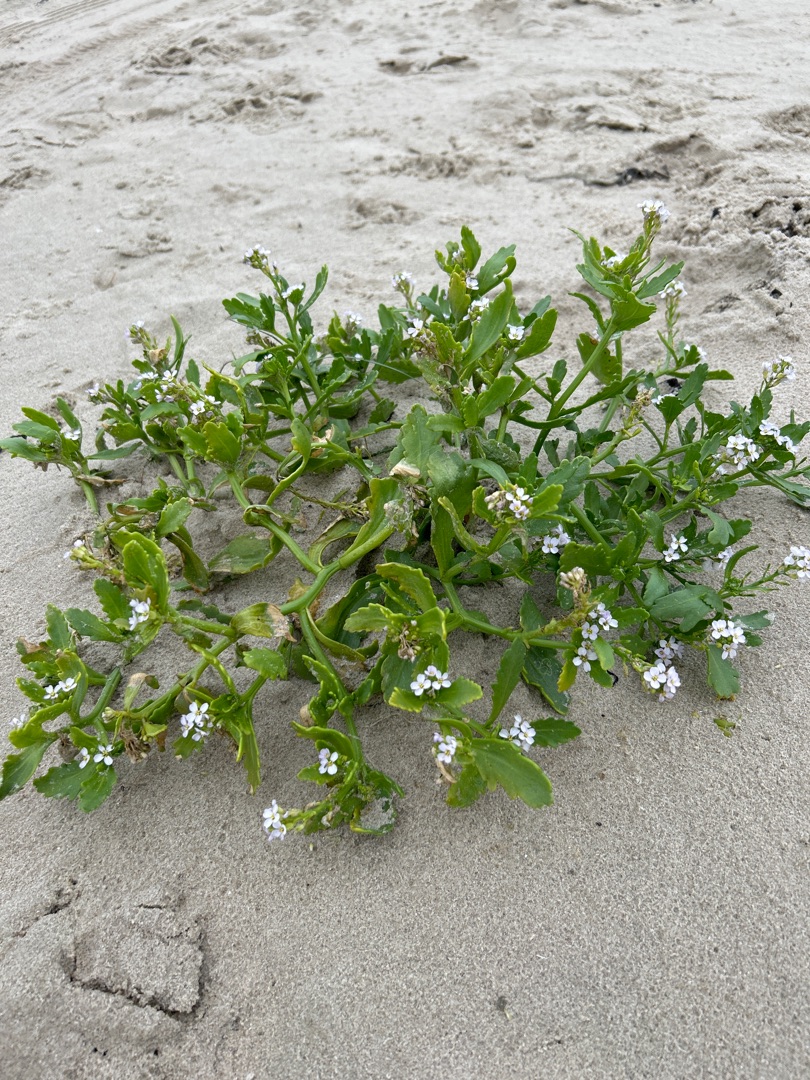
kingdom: Plantae
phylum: Tracheophyta
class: Magnoliopsida
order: Brassicales
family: Brassicaceae
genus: Cakile
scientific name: Cakile maritima
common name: Vesterhavs-strandsennep
